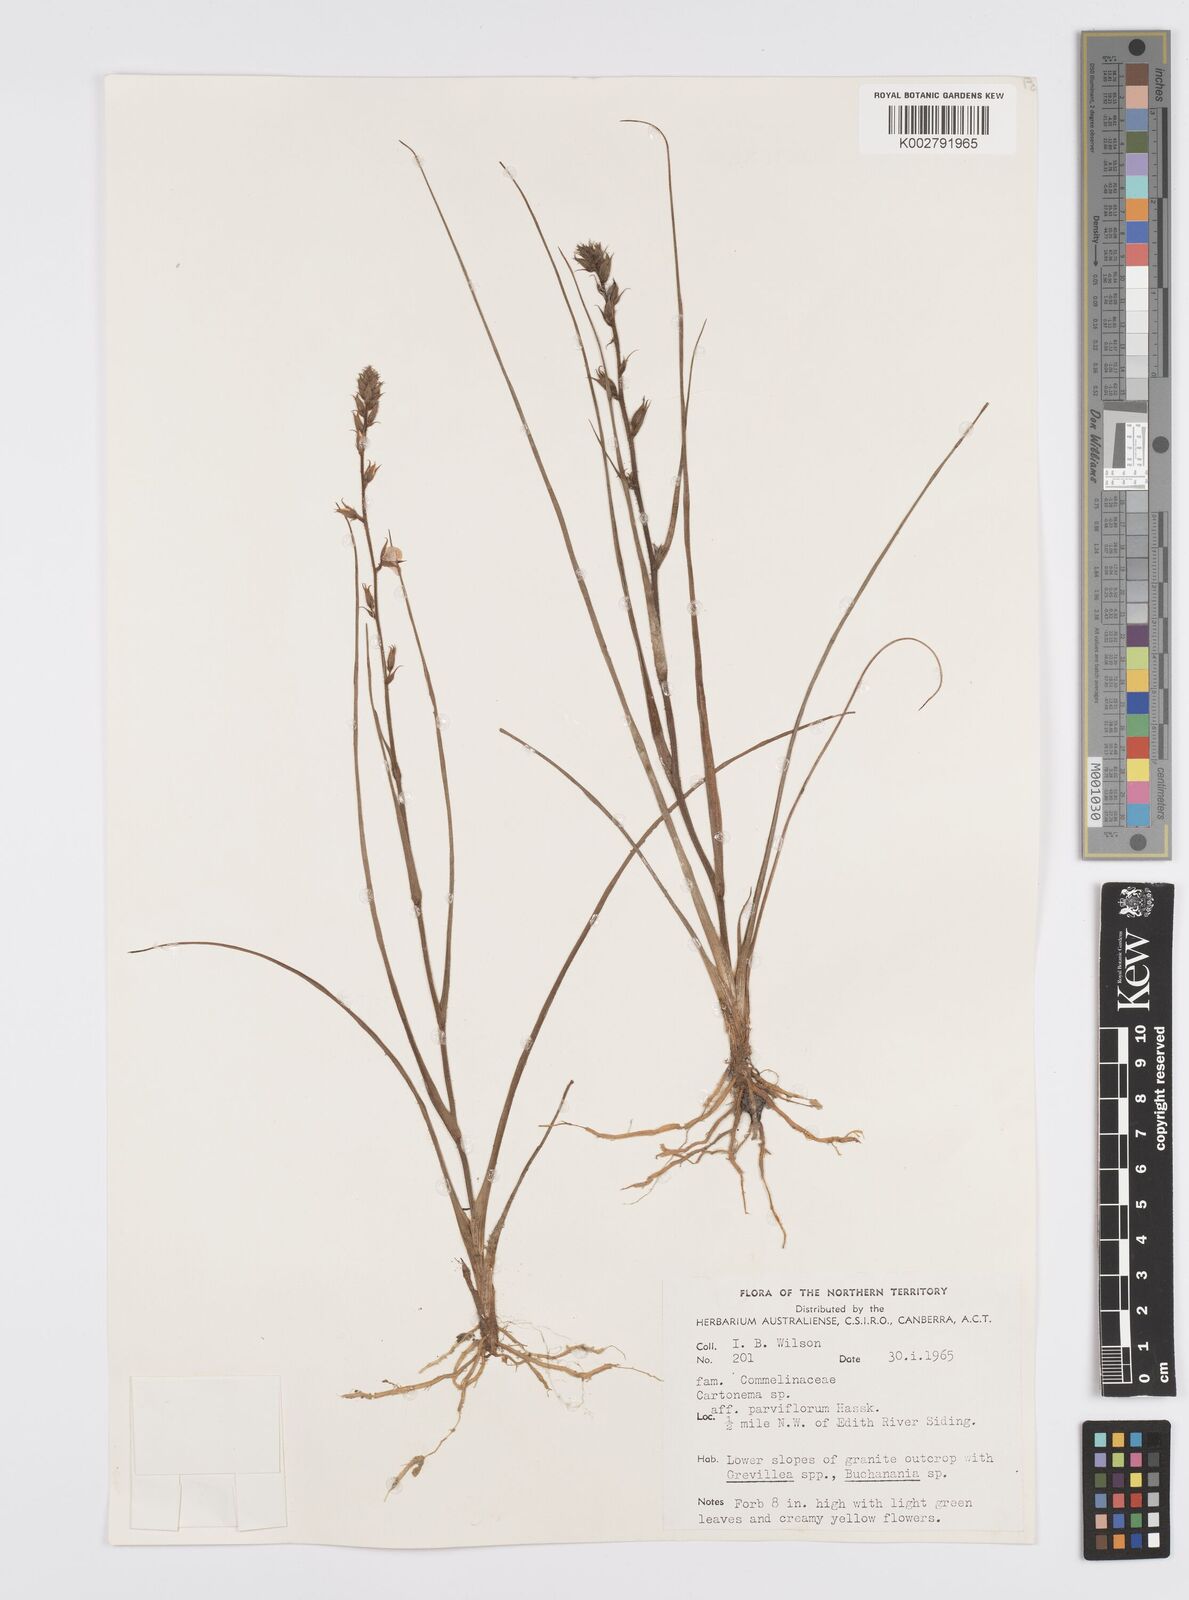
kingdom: Plantae
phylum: Tracheophyta
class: Liliopsida
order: Commelinales
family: Commelinaceae
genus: Cartonema
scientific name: Cartonema parviflorum
